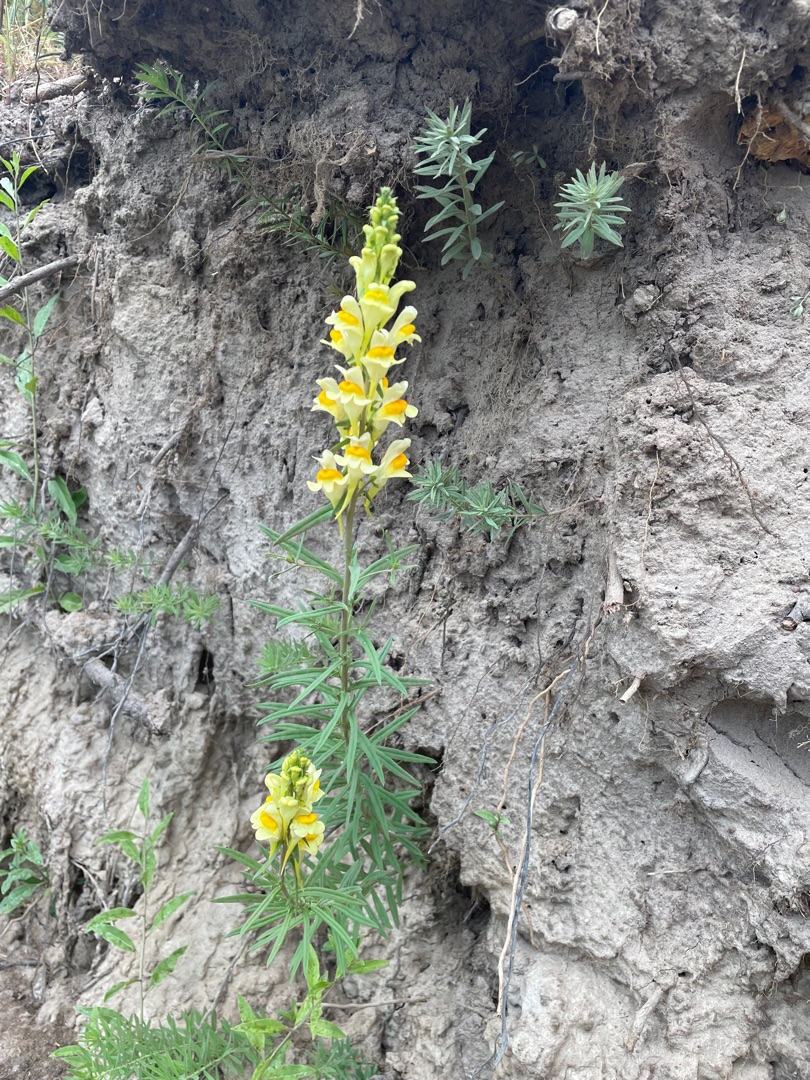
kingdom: Plantae
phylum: Tracheophyta
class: Magnoliopsida
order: Lamiales
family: Plantaginaceae
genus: Linaria
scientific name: Linaria vulgaris
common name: Almindelig torskemund
